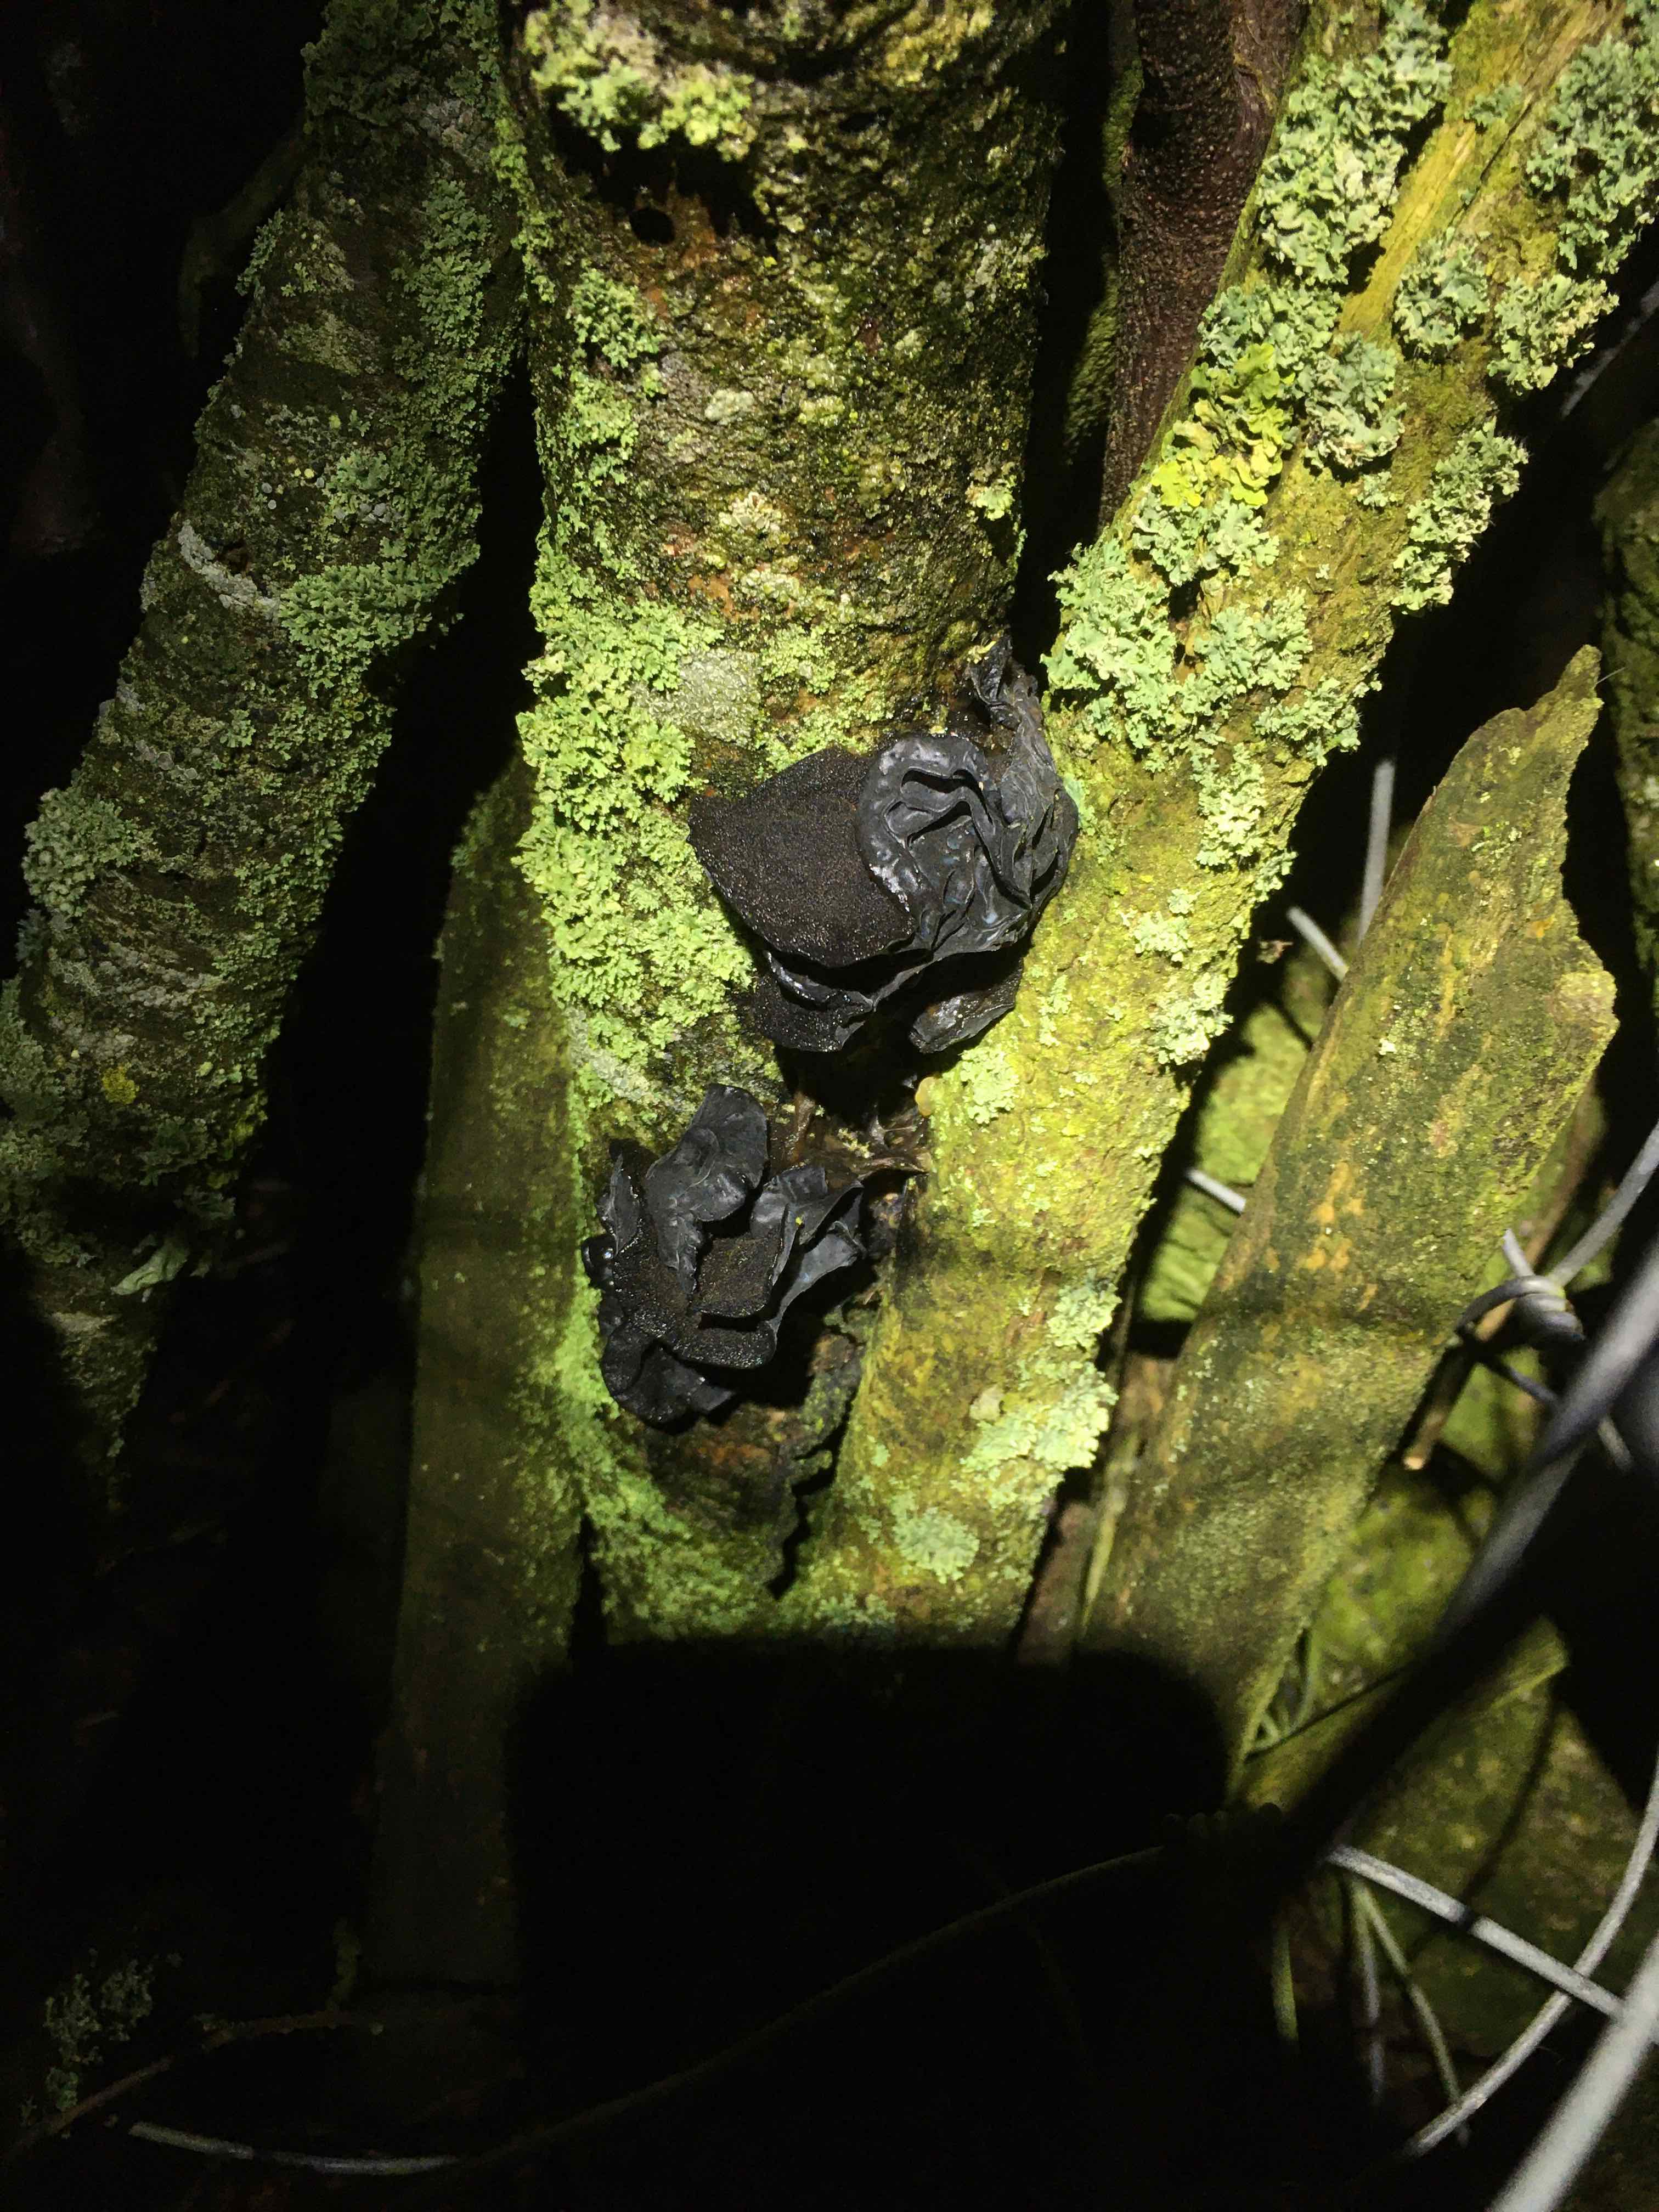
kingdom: Fungi
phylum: Basidiomycota
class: Agaricomycetes
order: Auriculariales
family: Auriculariaceae
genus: Exidia
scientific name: Exidia glandulosa
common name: ege-bævretop
